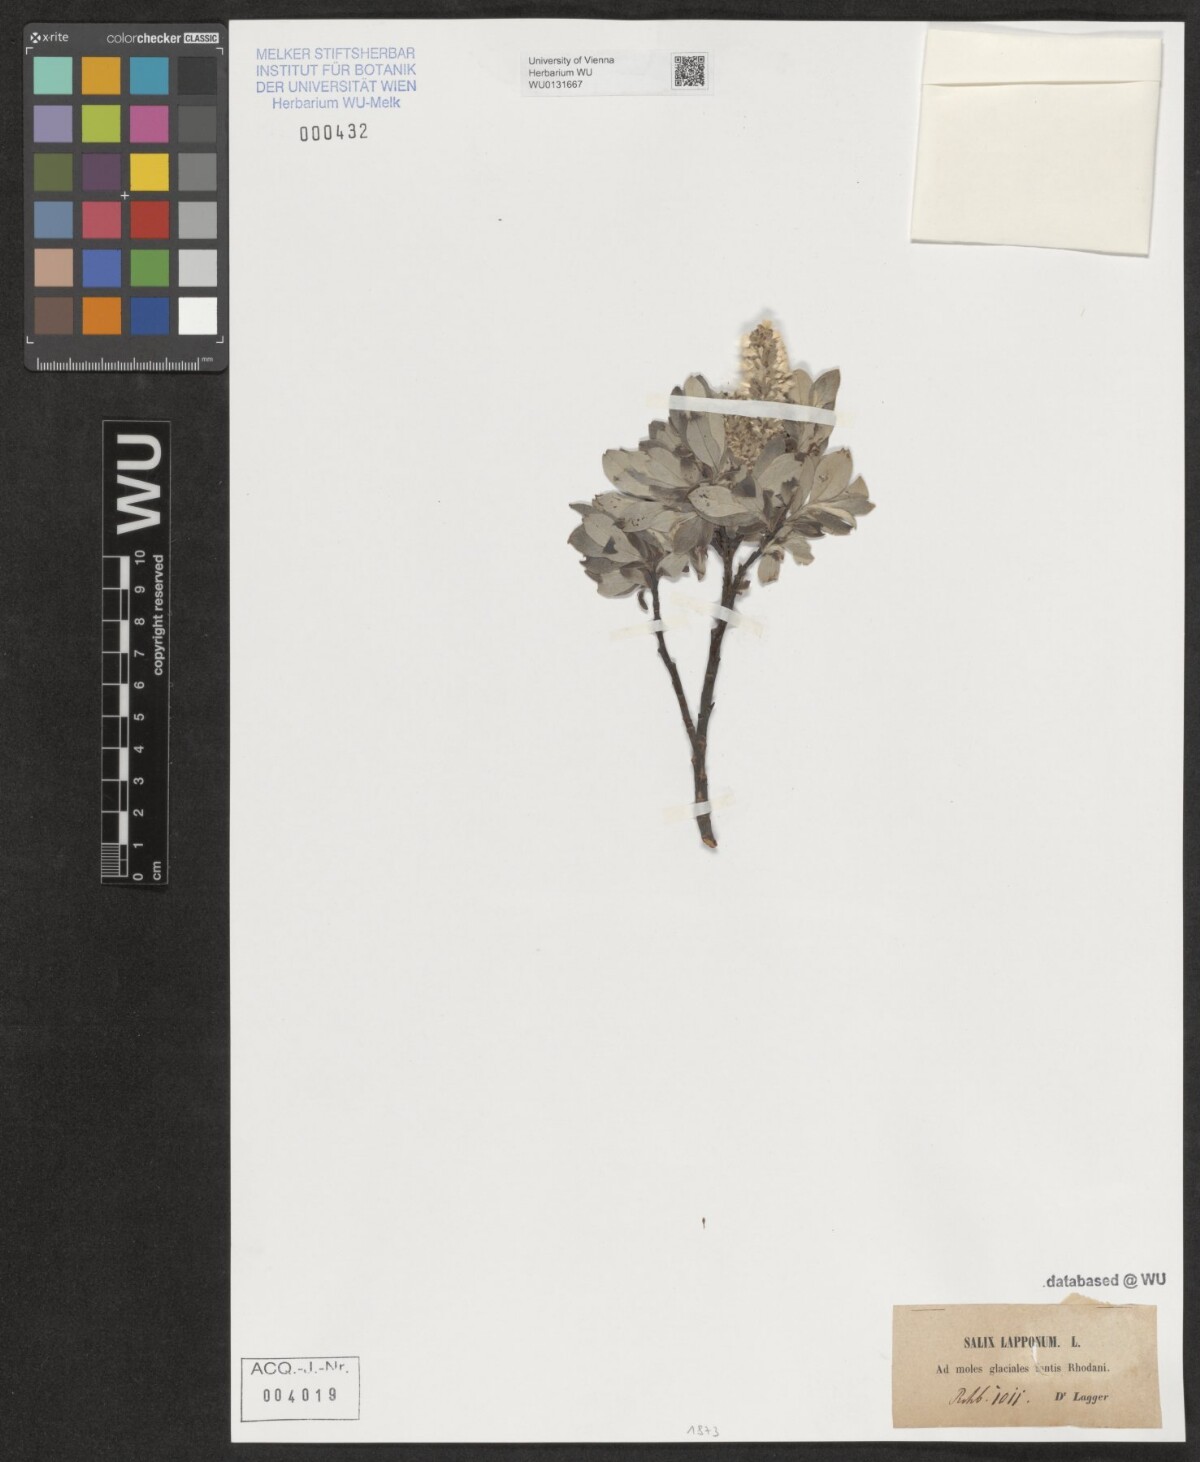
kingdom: Plantae
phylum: Tracheophyta
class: Magnoliopsida
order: Malpighiales
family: Salicaceae
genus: Salix
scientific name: Salix lapponum
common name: Downy willow
